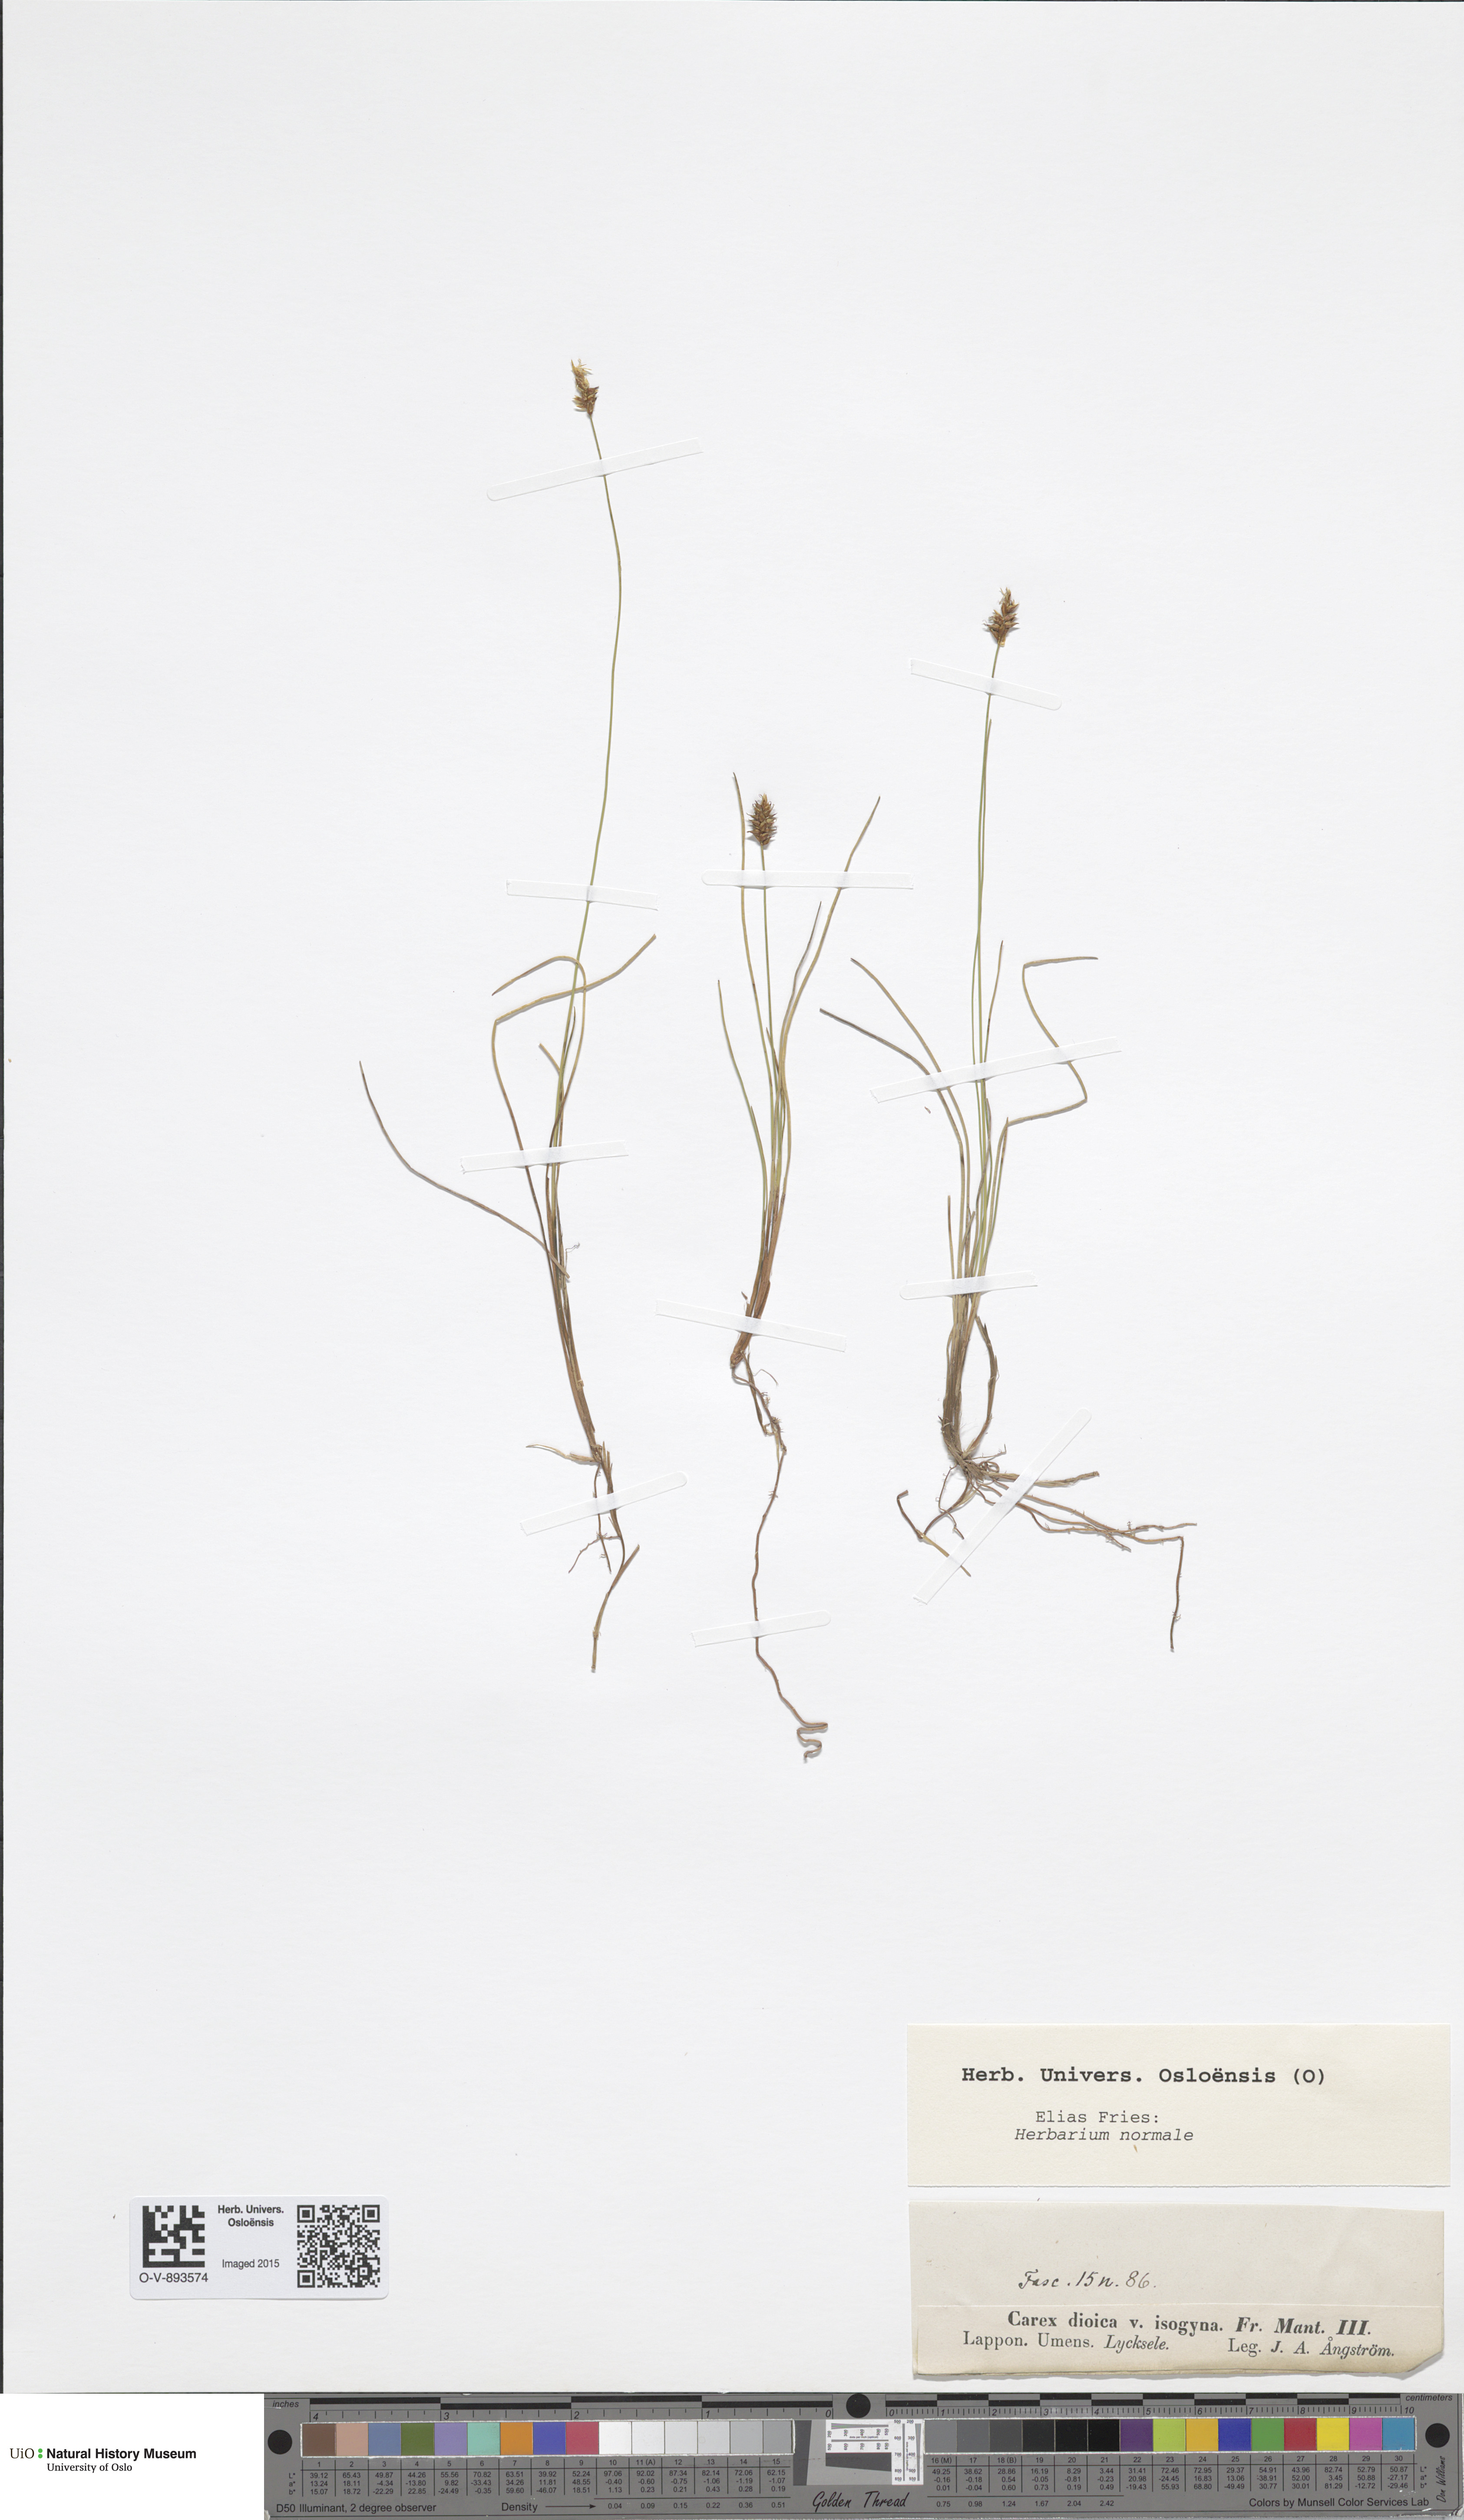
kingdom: Plantae
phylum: Tracheophyta
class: Liliopsida
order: Poales
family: Cyperaceae
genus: Carex
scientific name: Carex dioica
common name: Dioecious sedge
